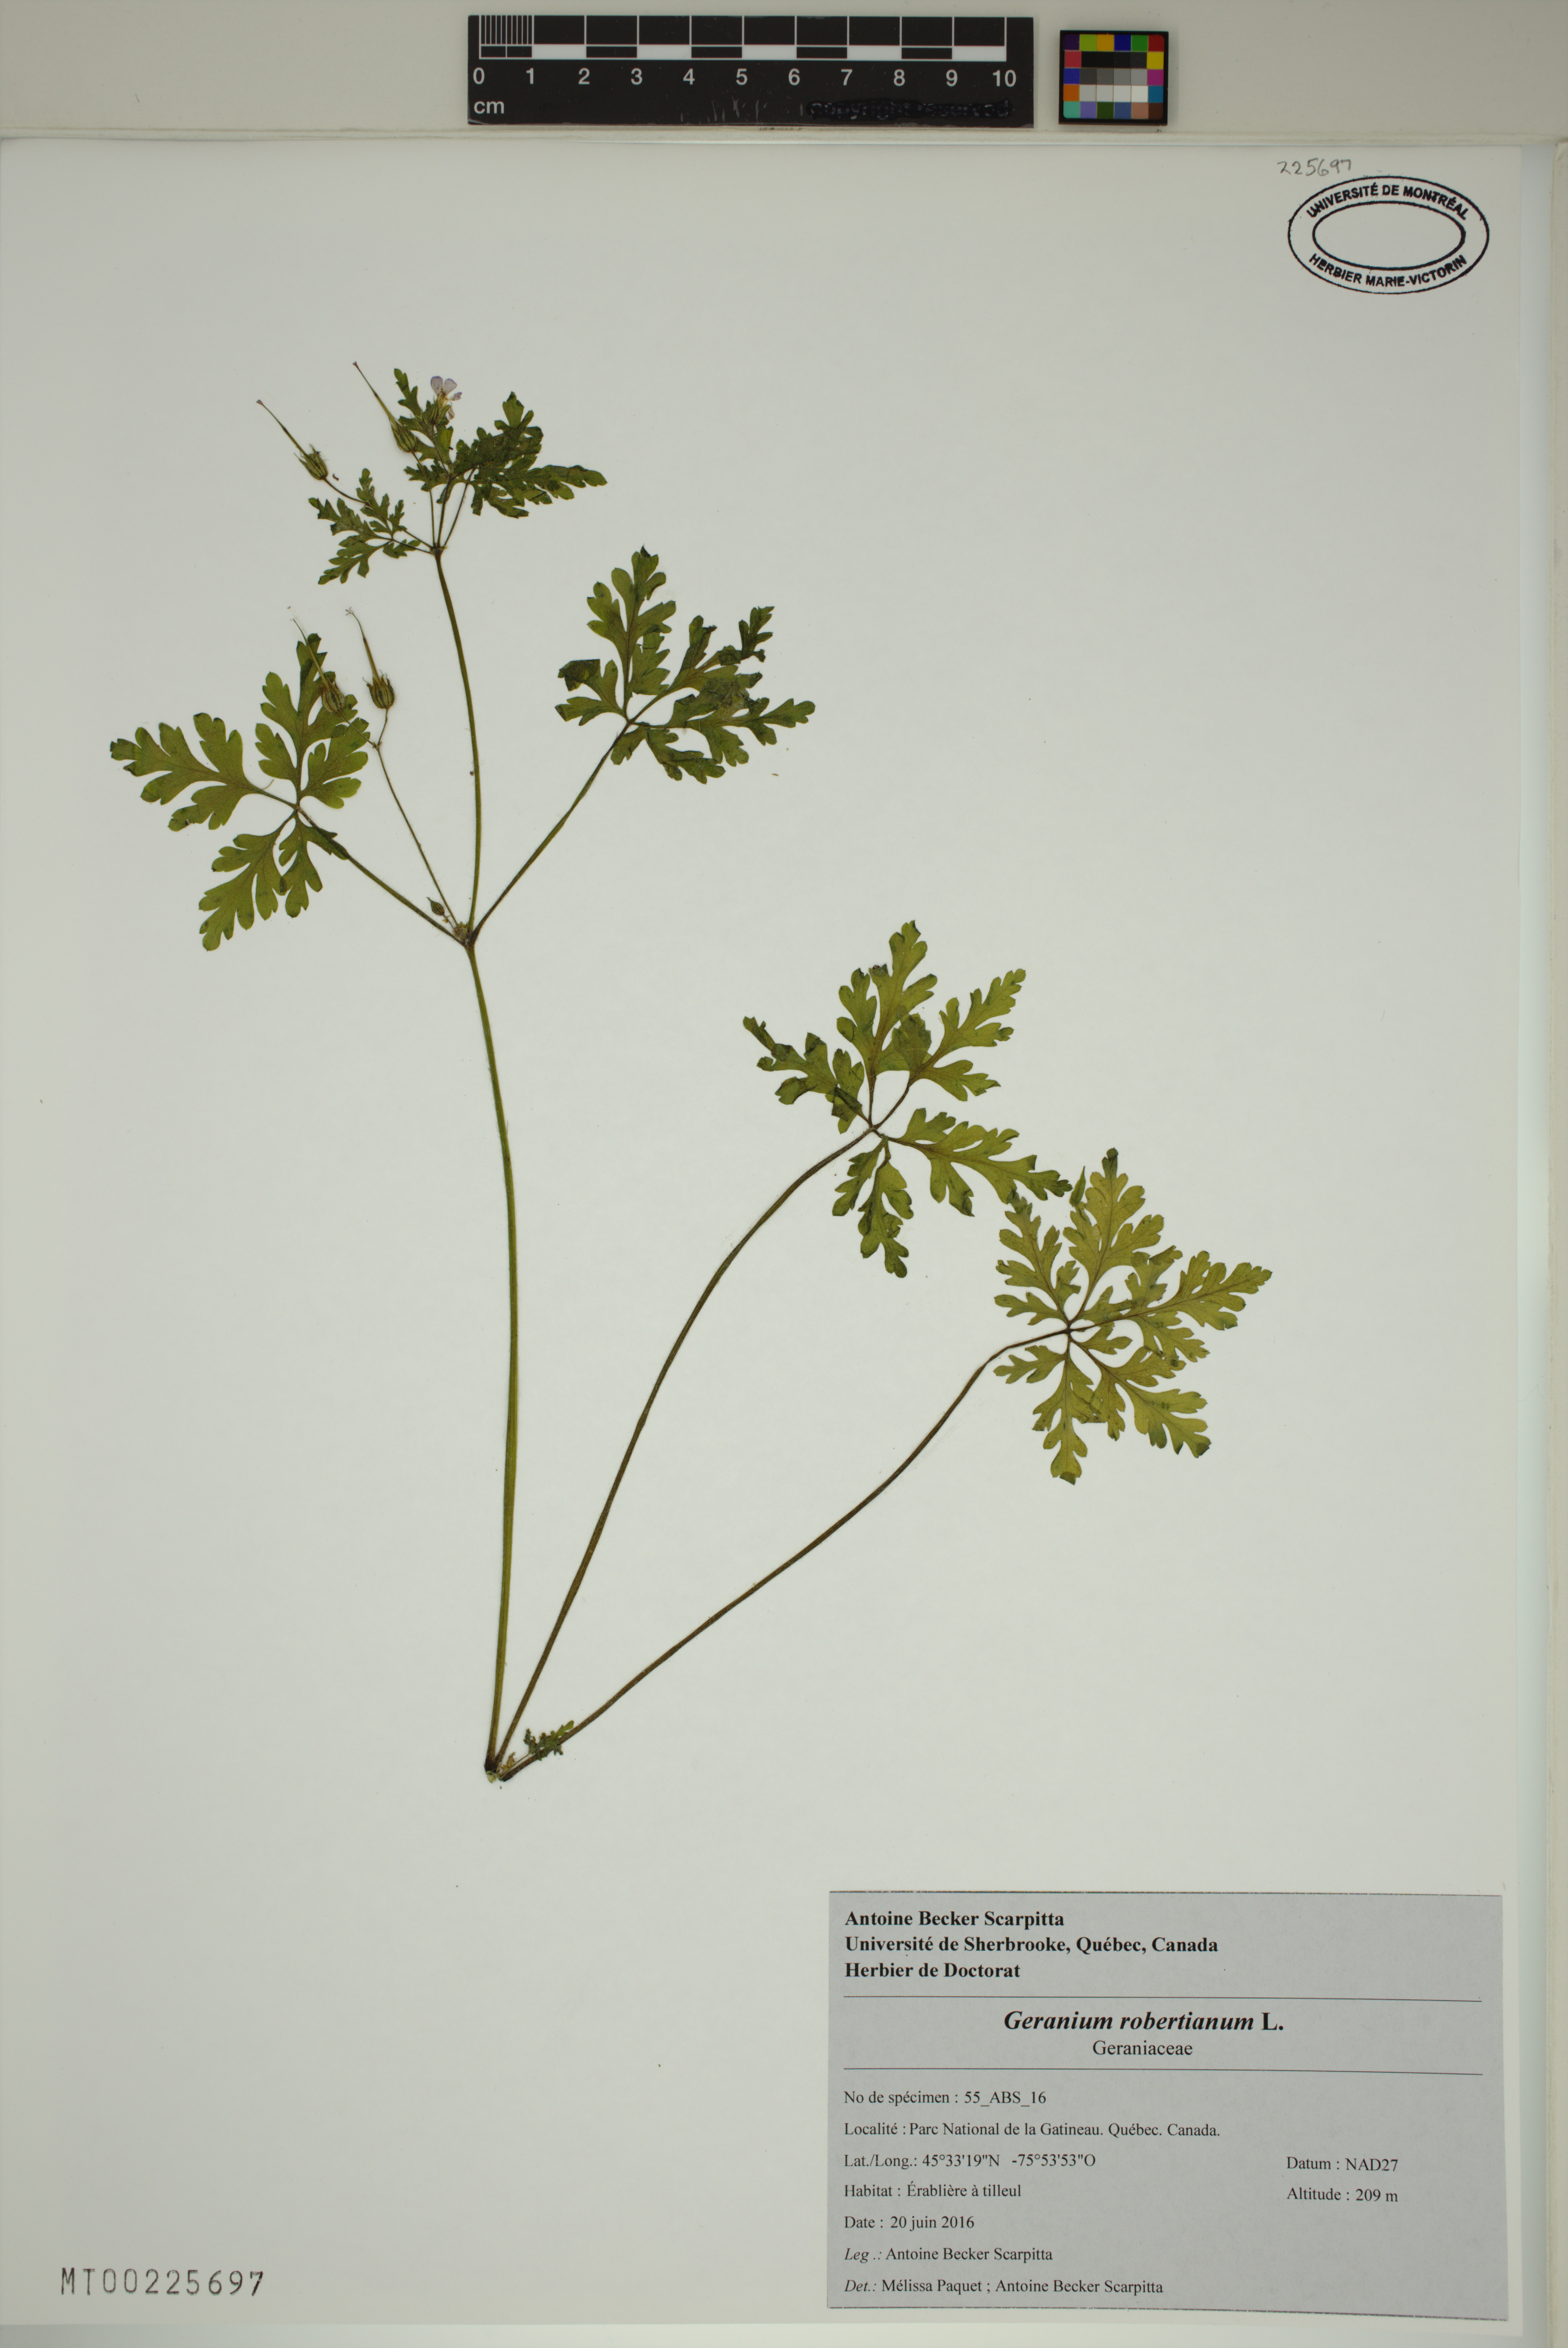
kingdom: Plantae
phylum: Tracheophyta
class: Magnoliopsida
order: Geraniales
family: Geraniaceae
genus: Geranium
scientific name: Geranium robertianum
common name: Herb-robert
